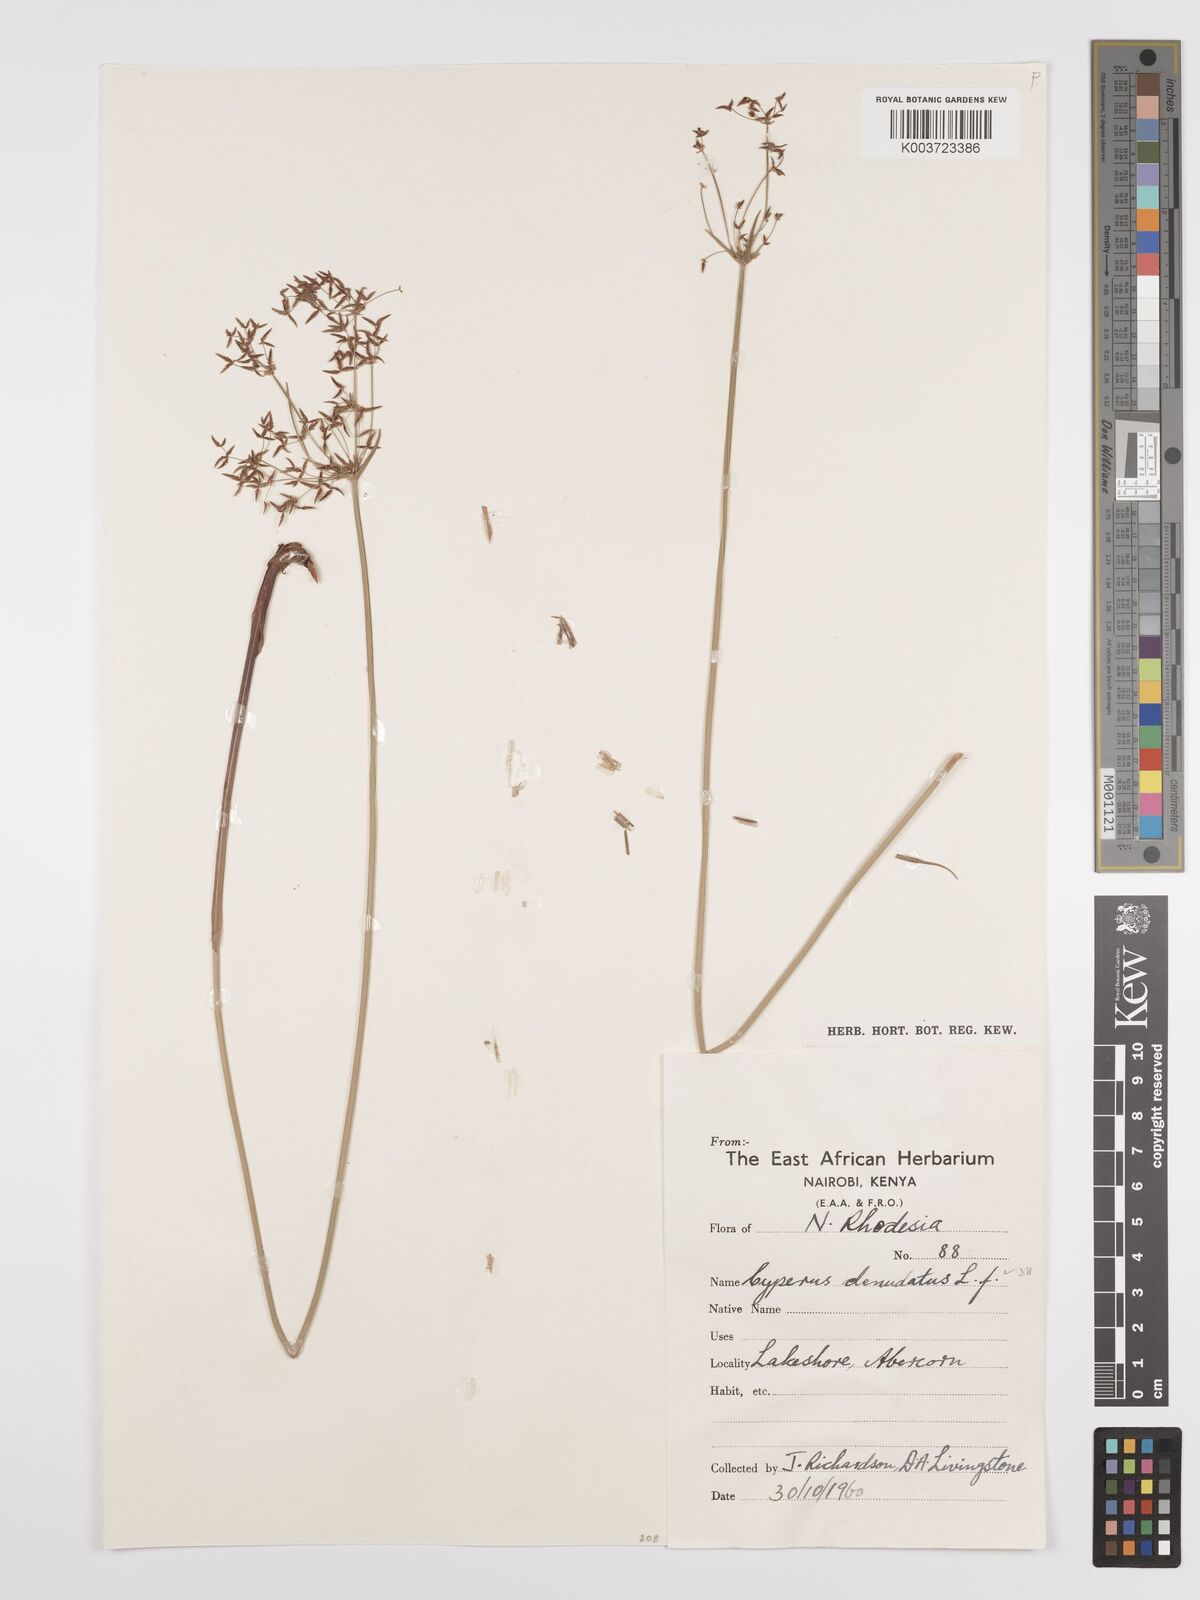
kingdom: Plantae
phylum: Tracheophyta
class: Liliopsida
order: Poales
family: Cyperaceae
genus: Cyperus
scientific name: Cyperus denudatus
